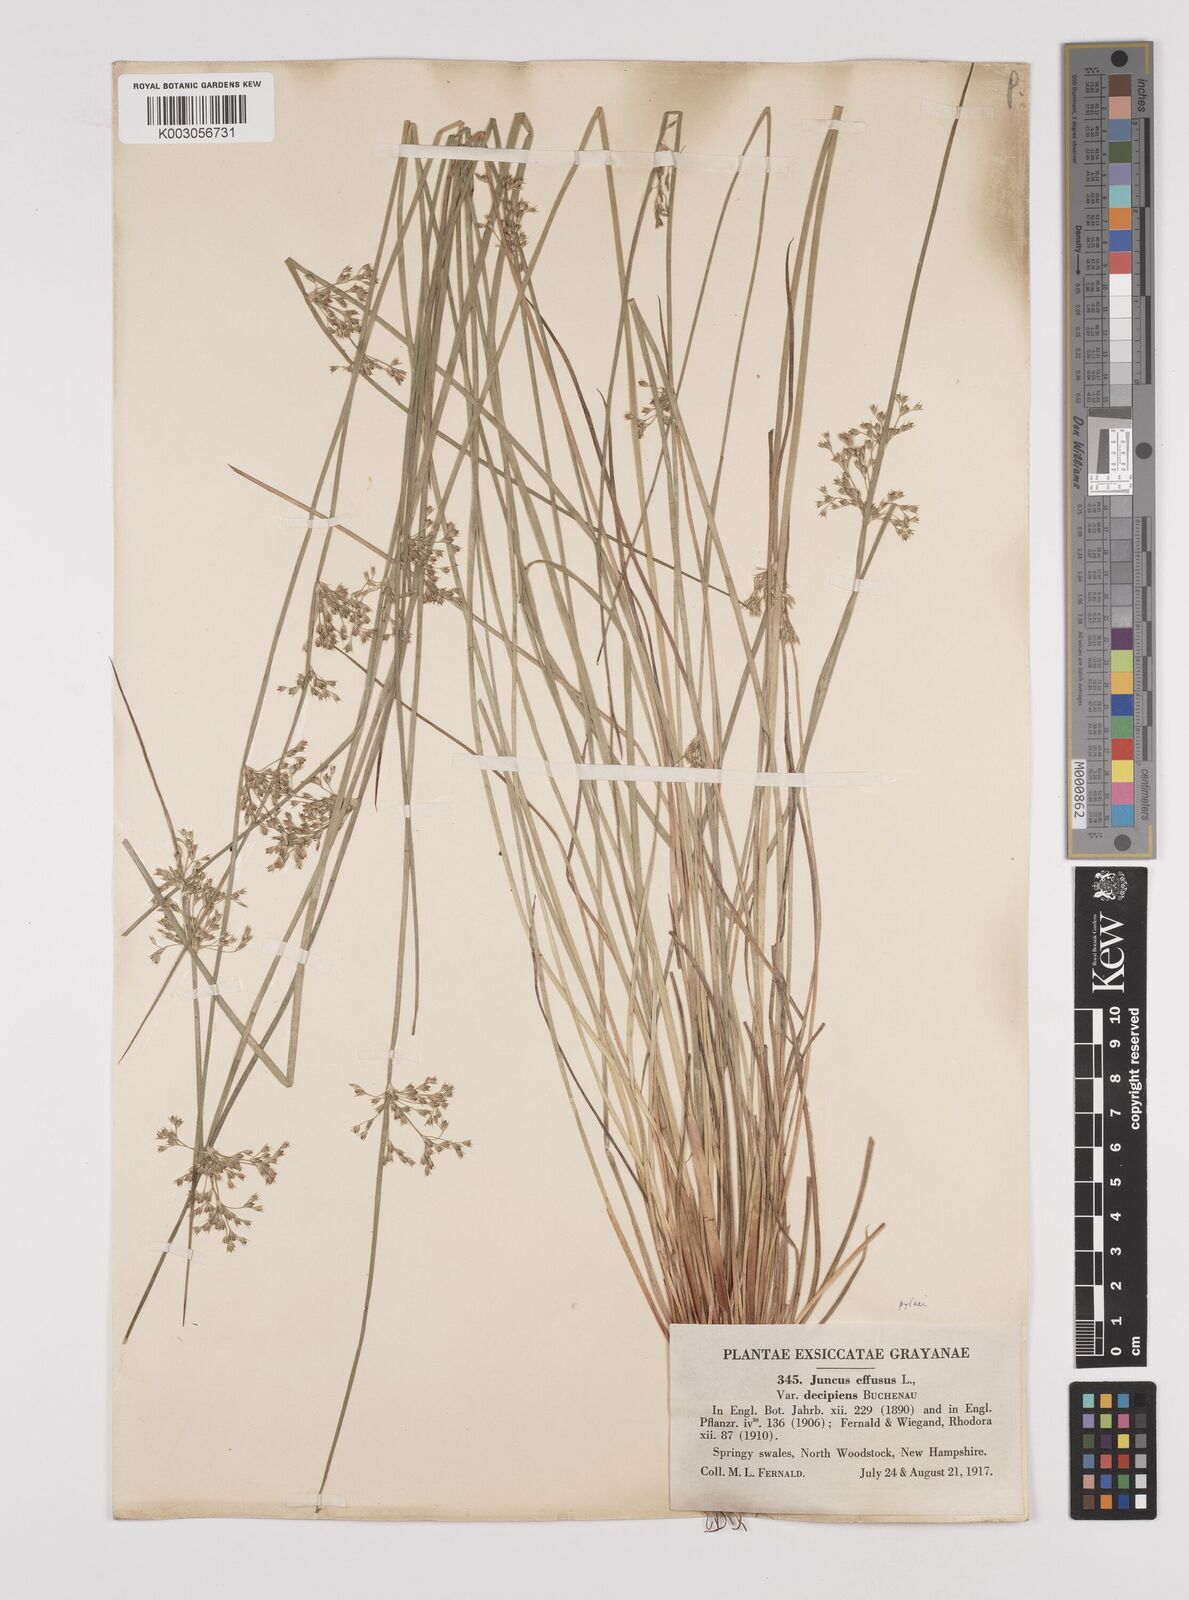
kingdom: Plantae
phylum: Tracheophyta
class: Liliopsida
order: Poales
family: Juncaceae
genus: Juncus
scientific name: Juncus effusus
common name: Soft rush
